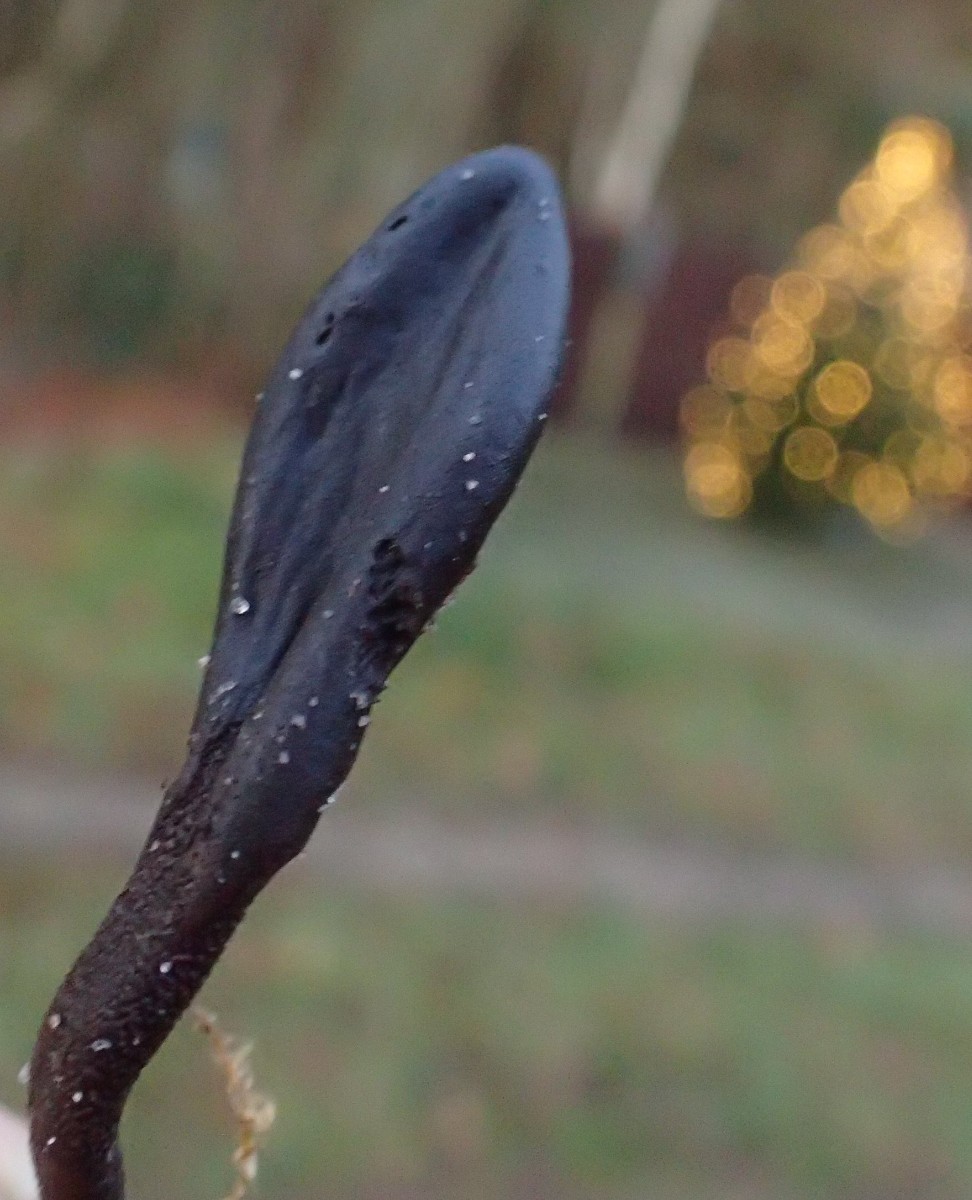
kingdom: Fungi
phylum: Ascomycota
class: Geoglossomycetes
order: Geoglossales
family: Geoglossaceae
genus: Geoglossum
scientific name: Geoglossum umbratile
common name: slank jordtunge
